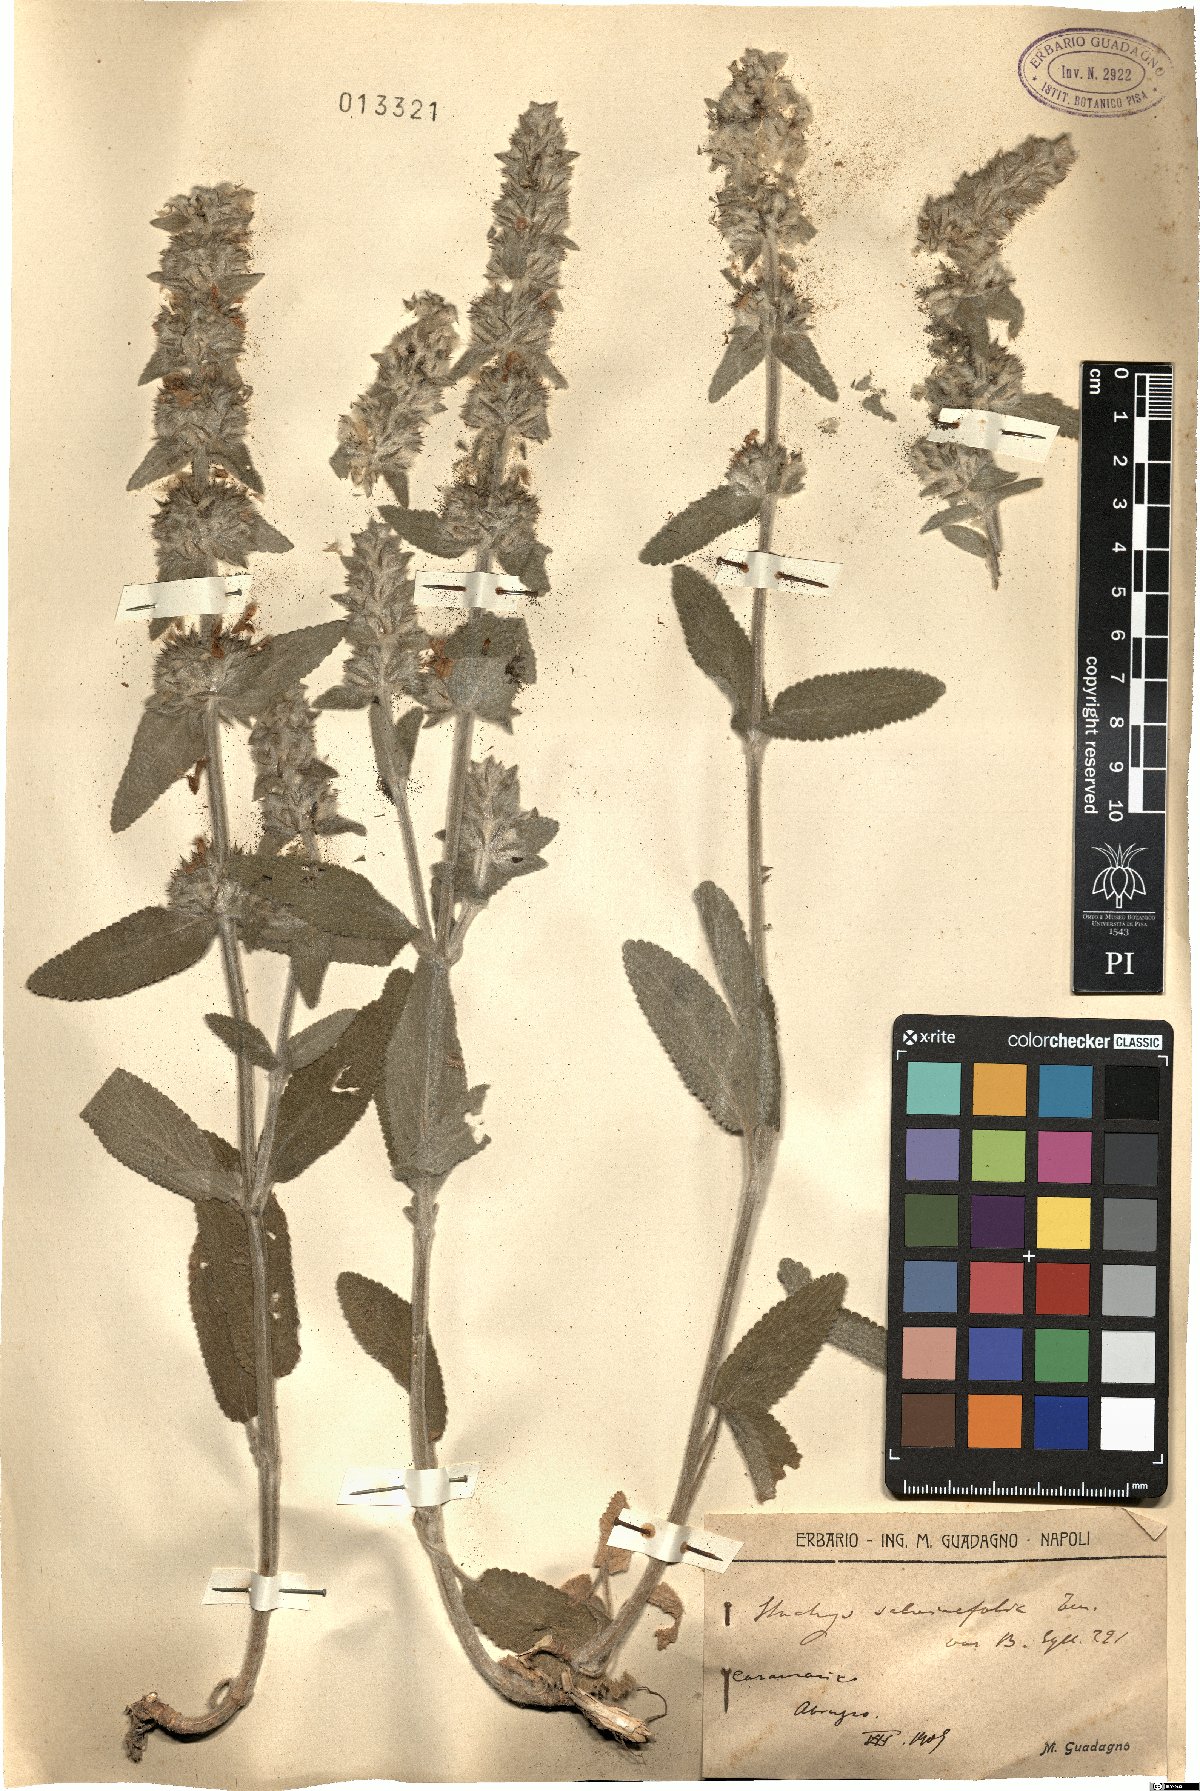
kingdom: Plantae
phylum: Tracheophyta
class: Magnoliopsida
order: Lamiales
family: Lamiaceae
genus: Stachys
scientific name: Stachys cretica
